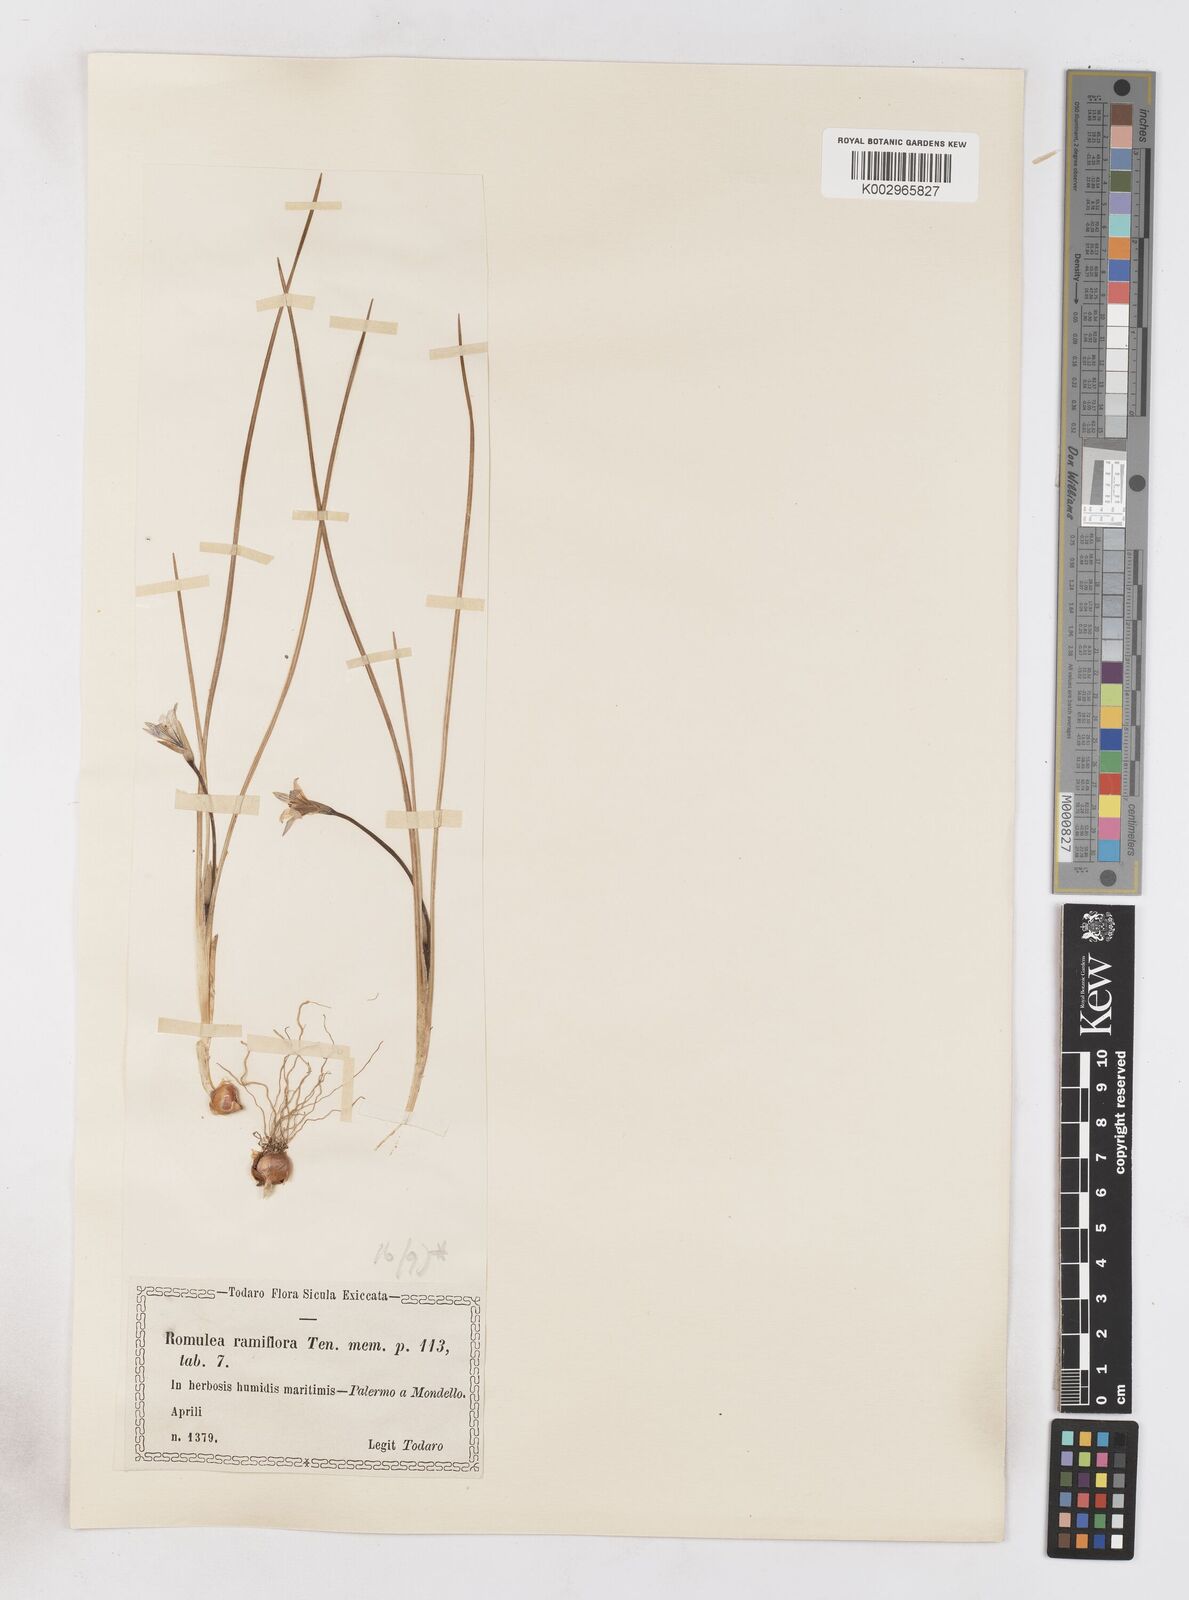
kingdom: Plantae
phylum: Tracheophyta
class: Liliopsida
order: Asparagales
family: Iridaceae
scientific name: Iridaceae
